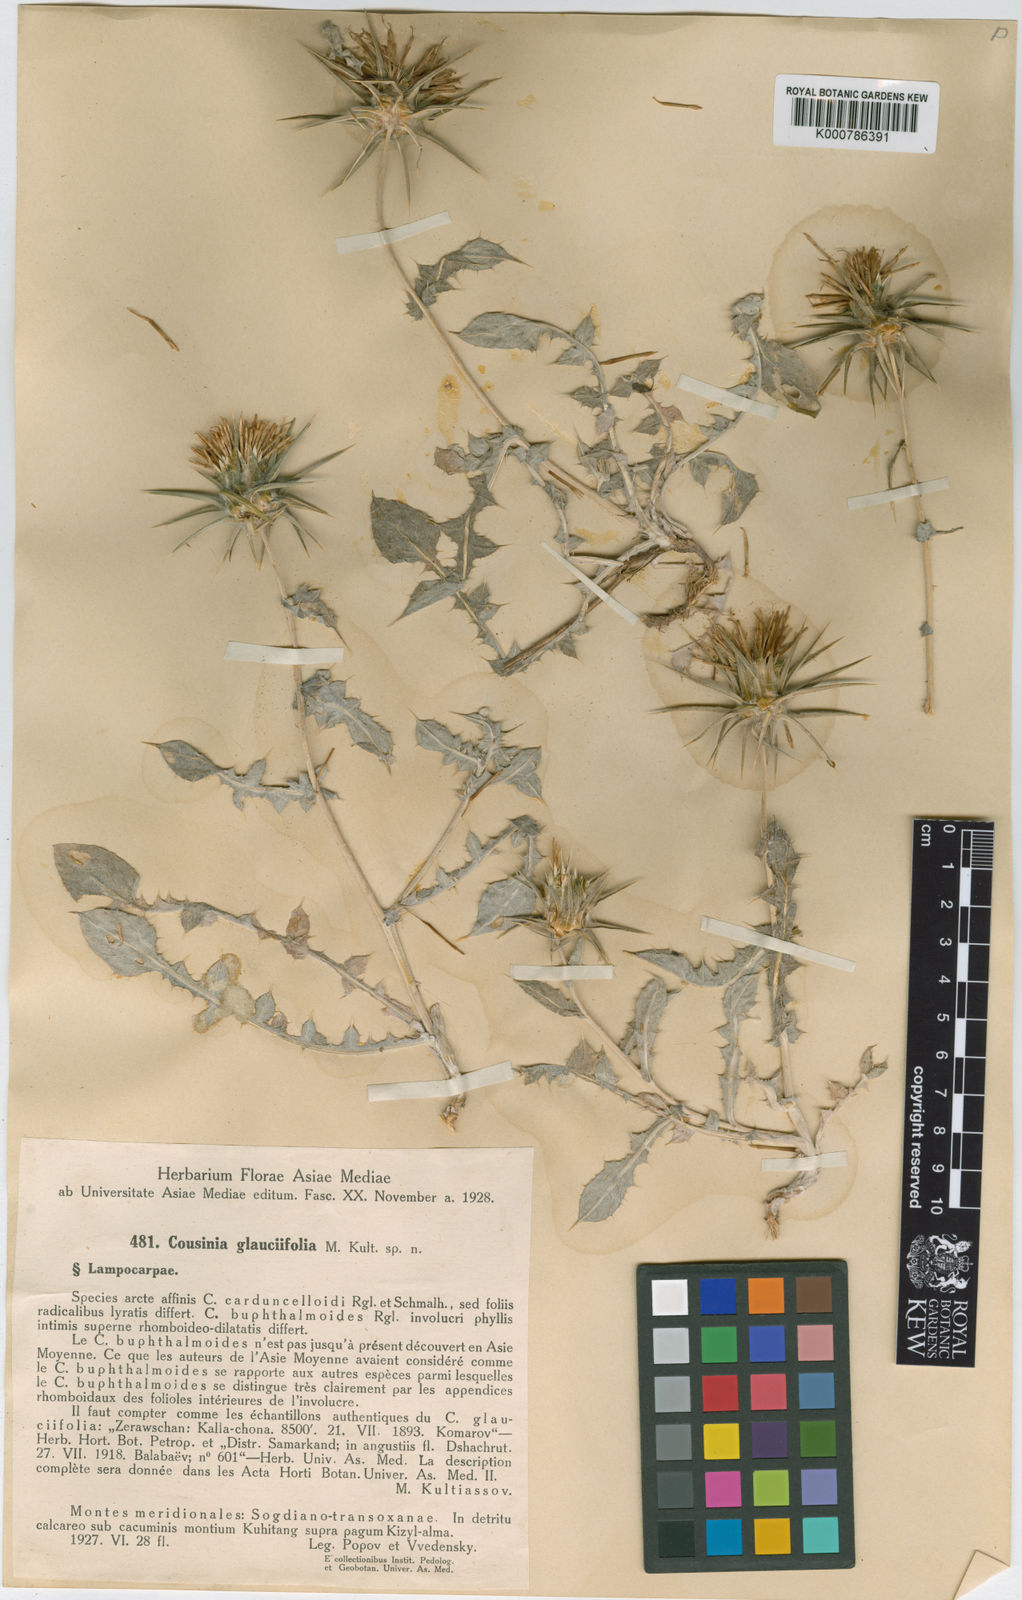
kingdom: Plantae
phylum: Tracheophyta
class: Magnoliopsida
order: Asterales
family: Asteraceae
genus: Cousinia
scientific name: Cousinia
